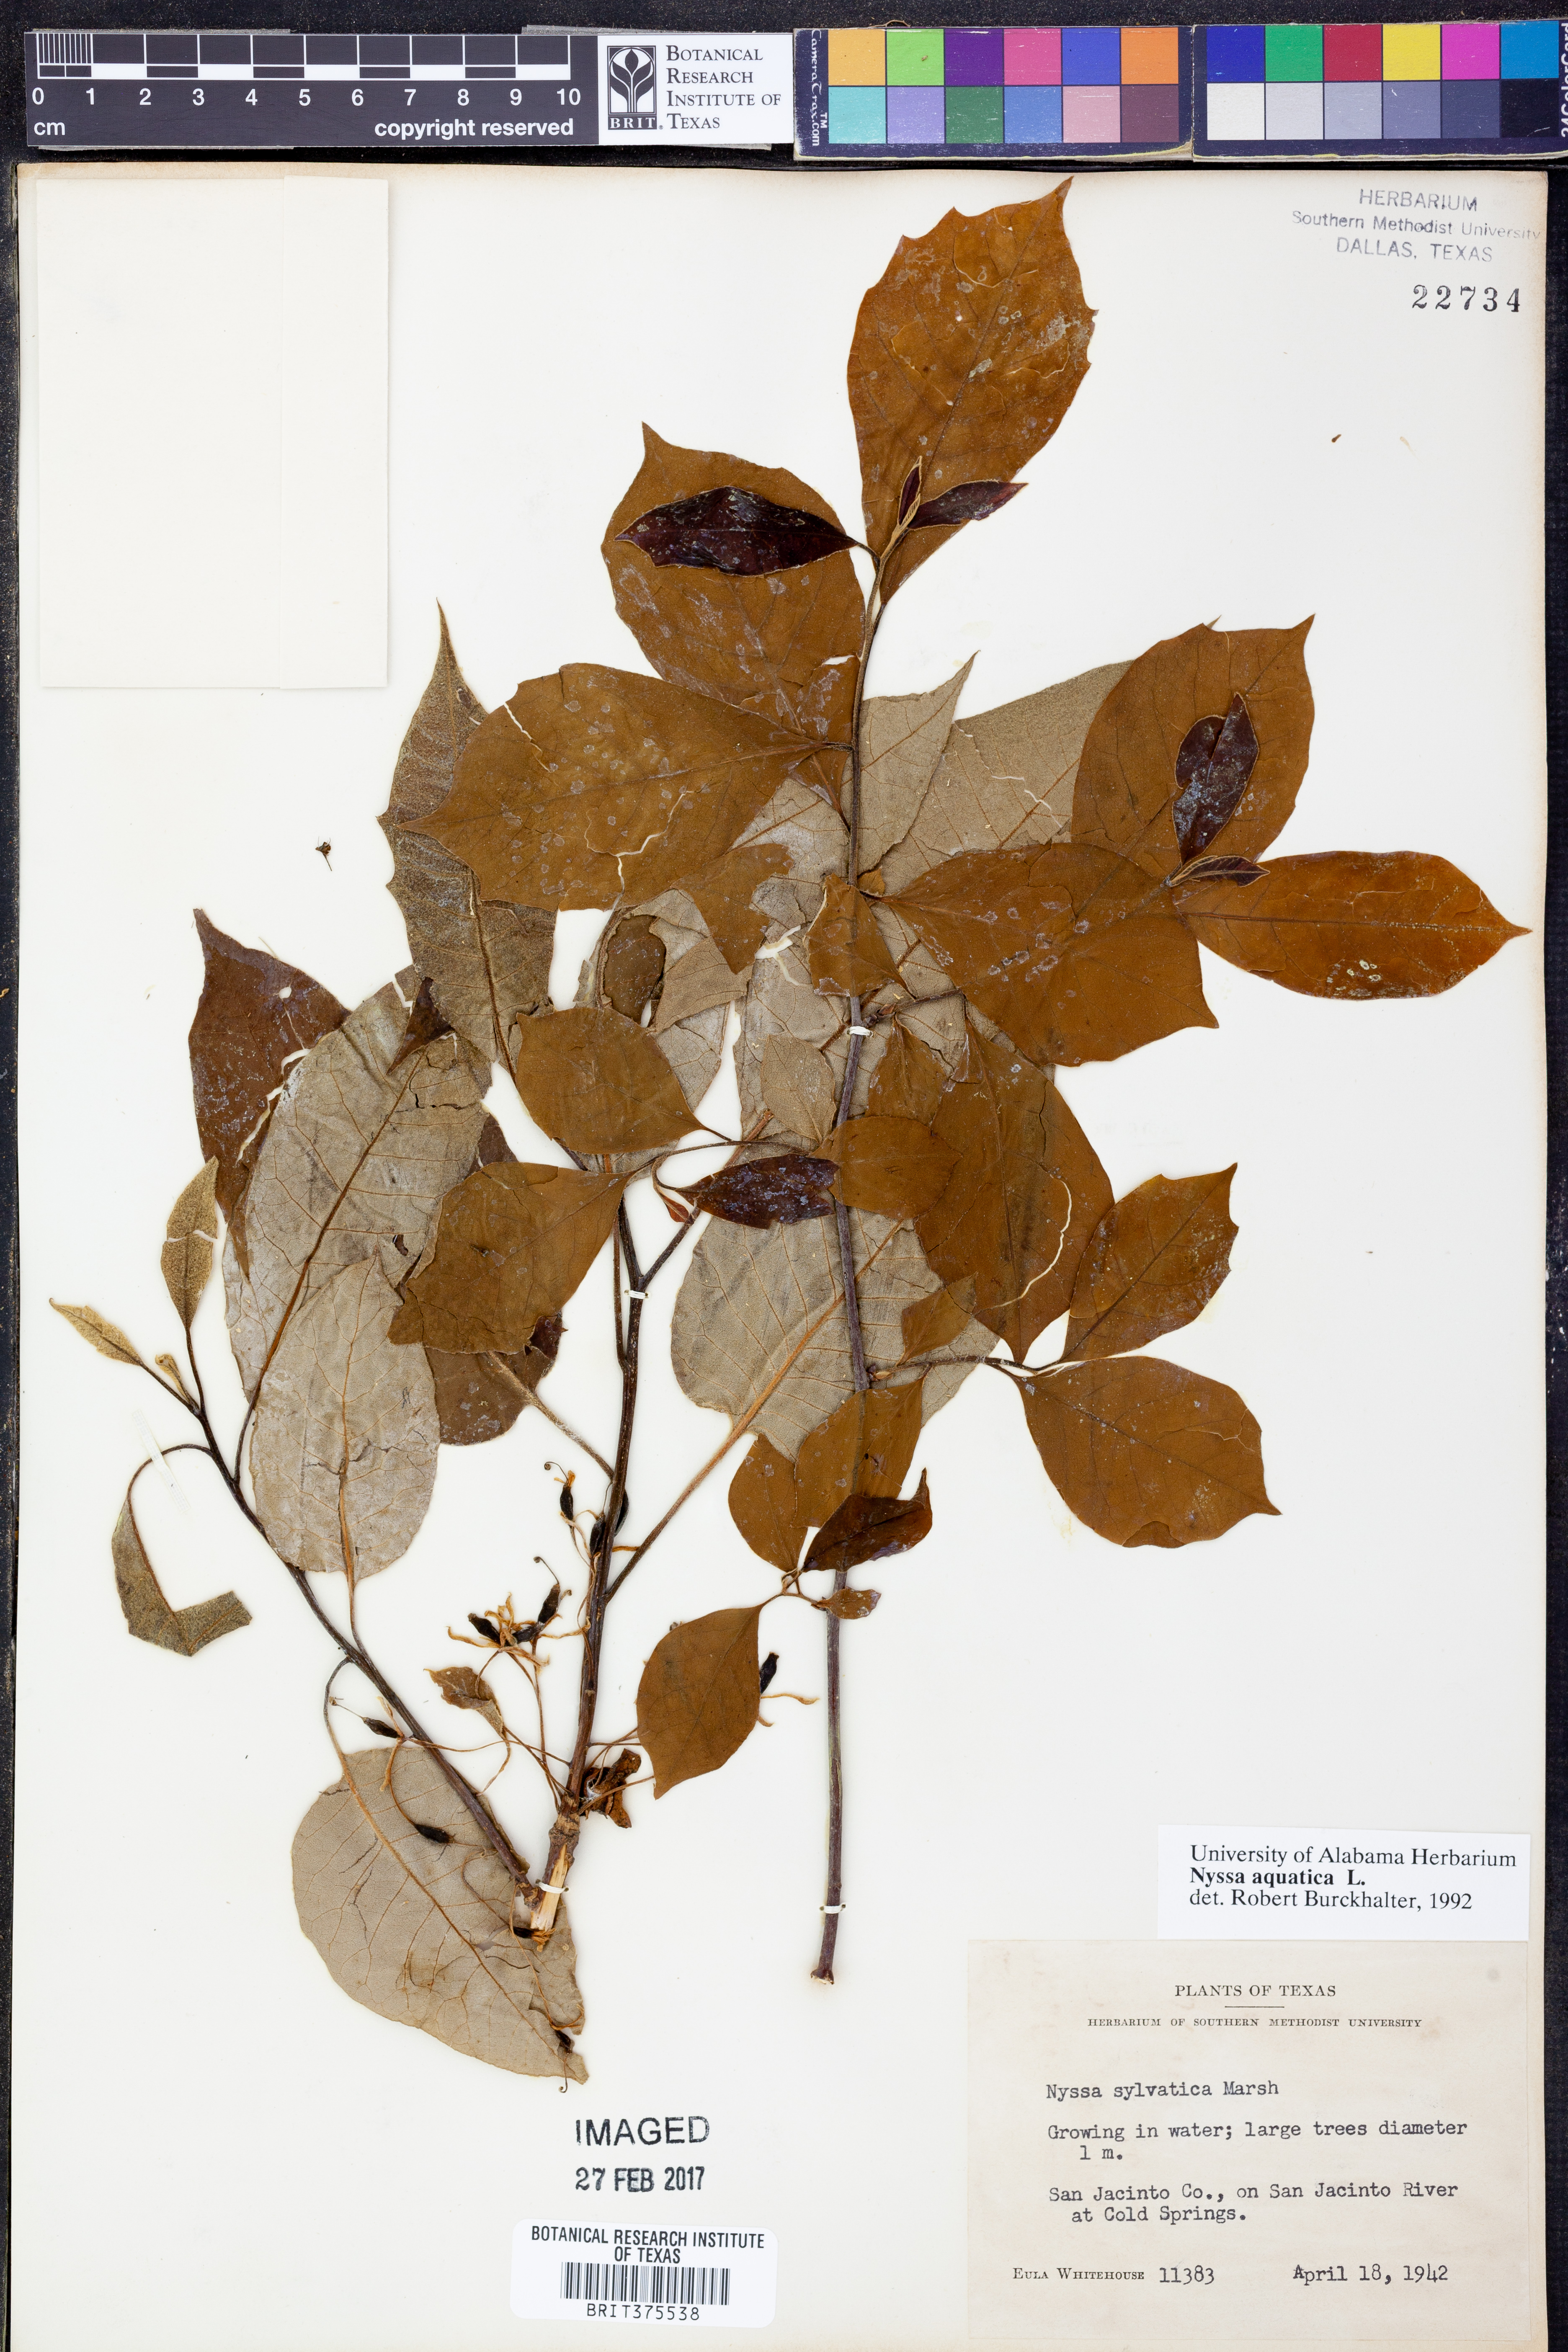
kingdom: Plantae
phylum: Tracheophyta
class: Magnoliopsida
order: Cornales
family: Nyssaceae
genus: Nyssa
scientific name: Nyssa aquatica
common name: Swamp tupelo
